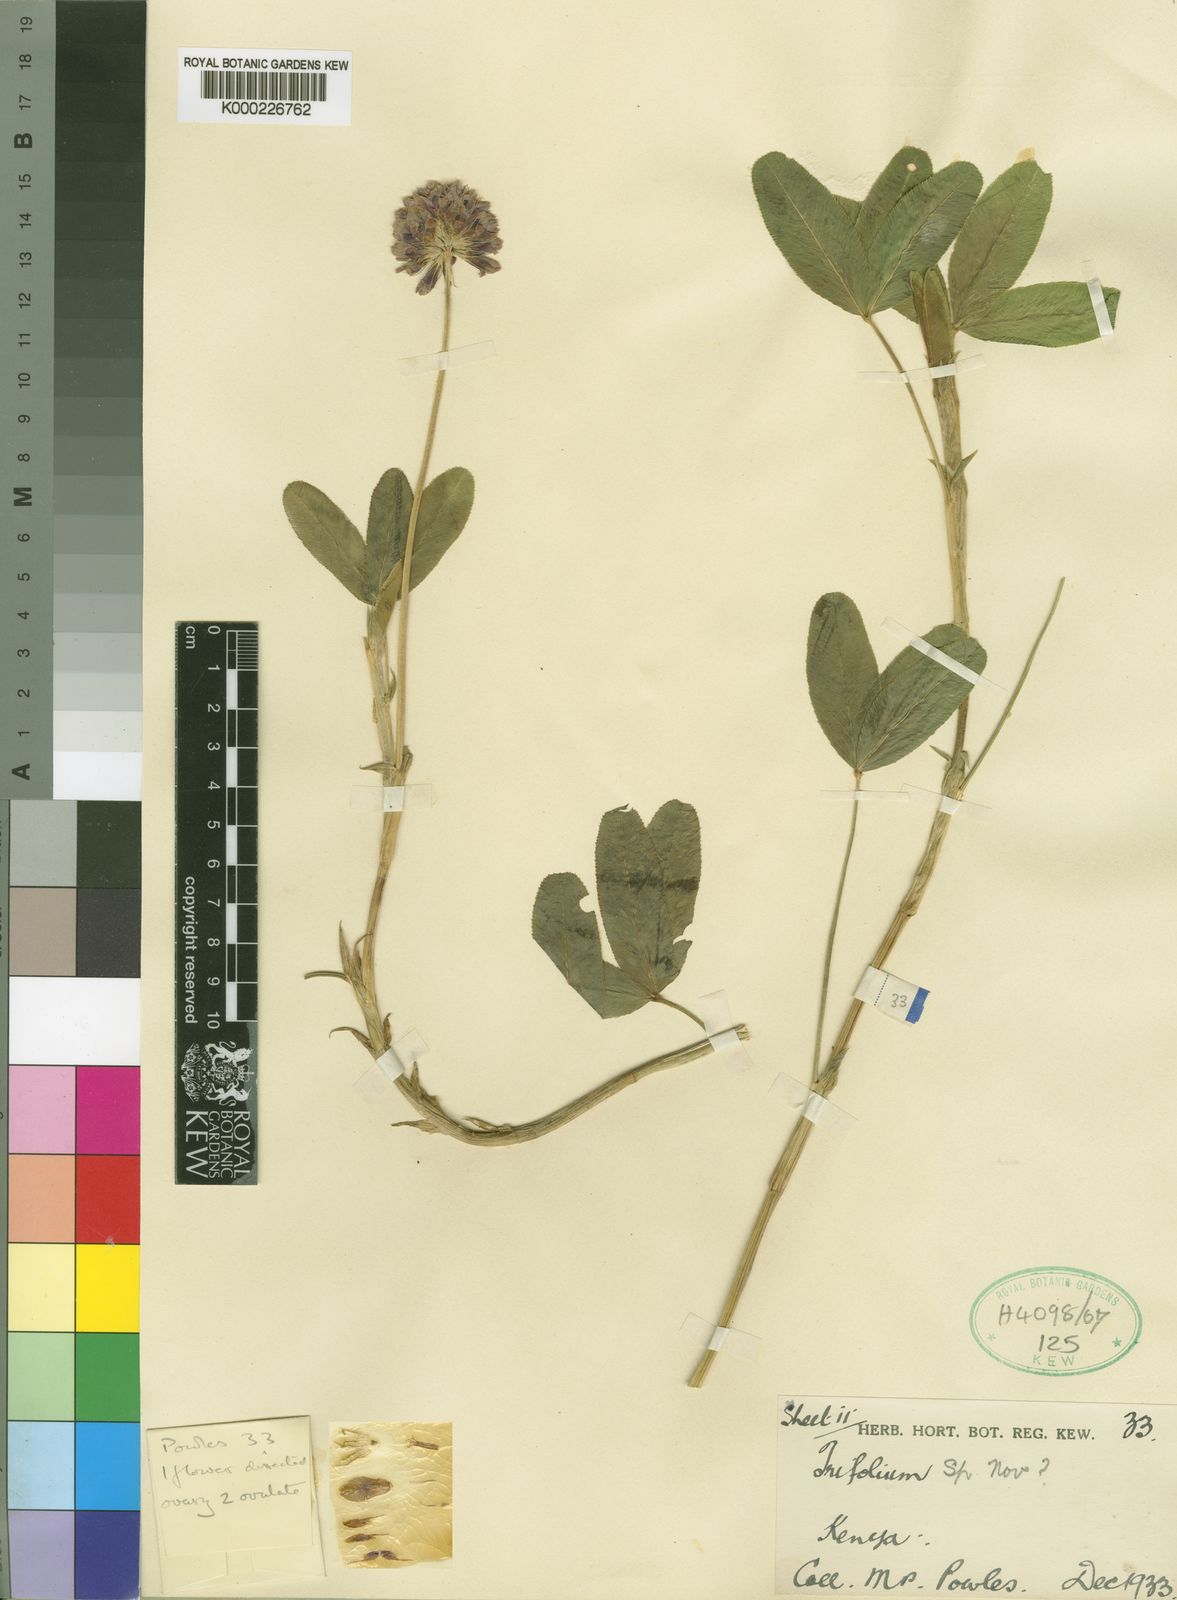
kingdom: Plantae
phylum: Tracheophyta
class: Magnoliopsida
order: Fabales
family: Fabaceae
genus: Trifolium
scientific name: Trifolium burchellianum
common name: Burchell's clover
